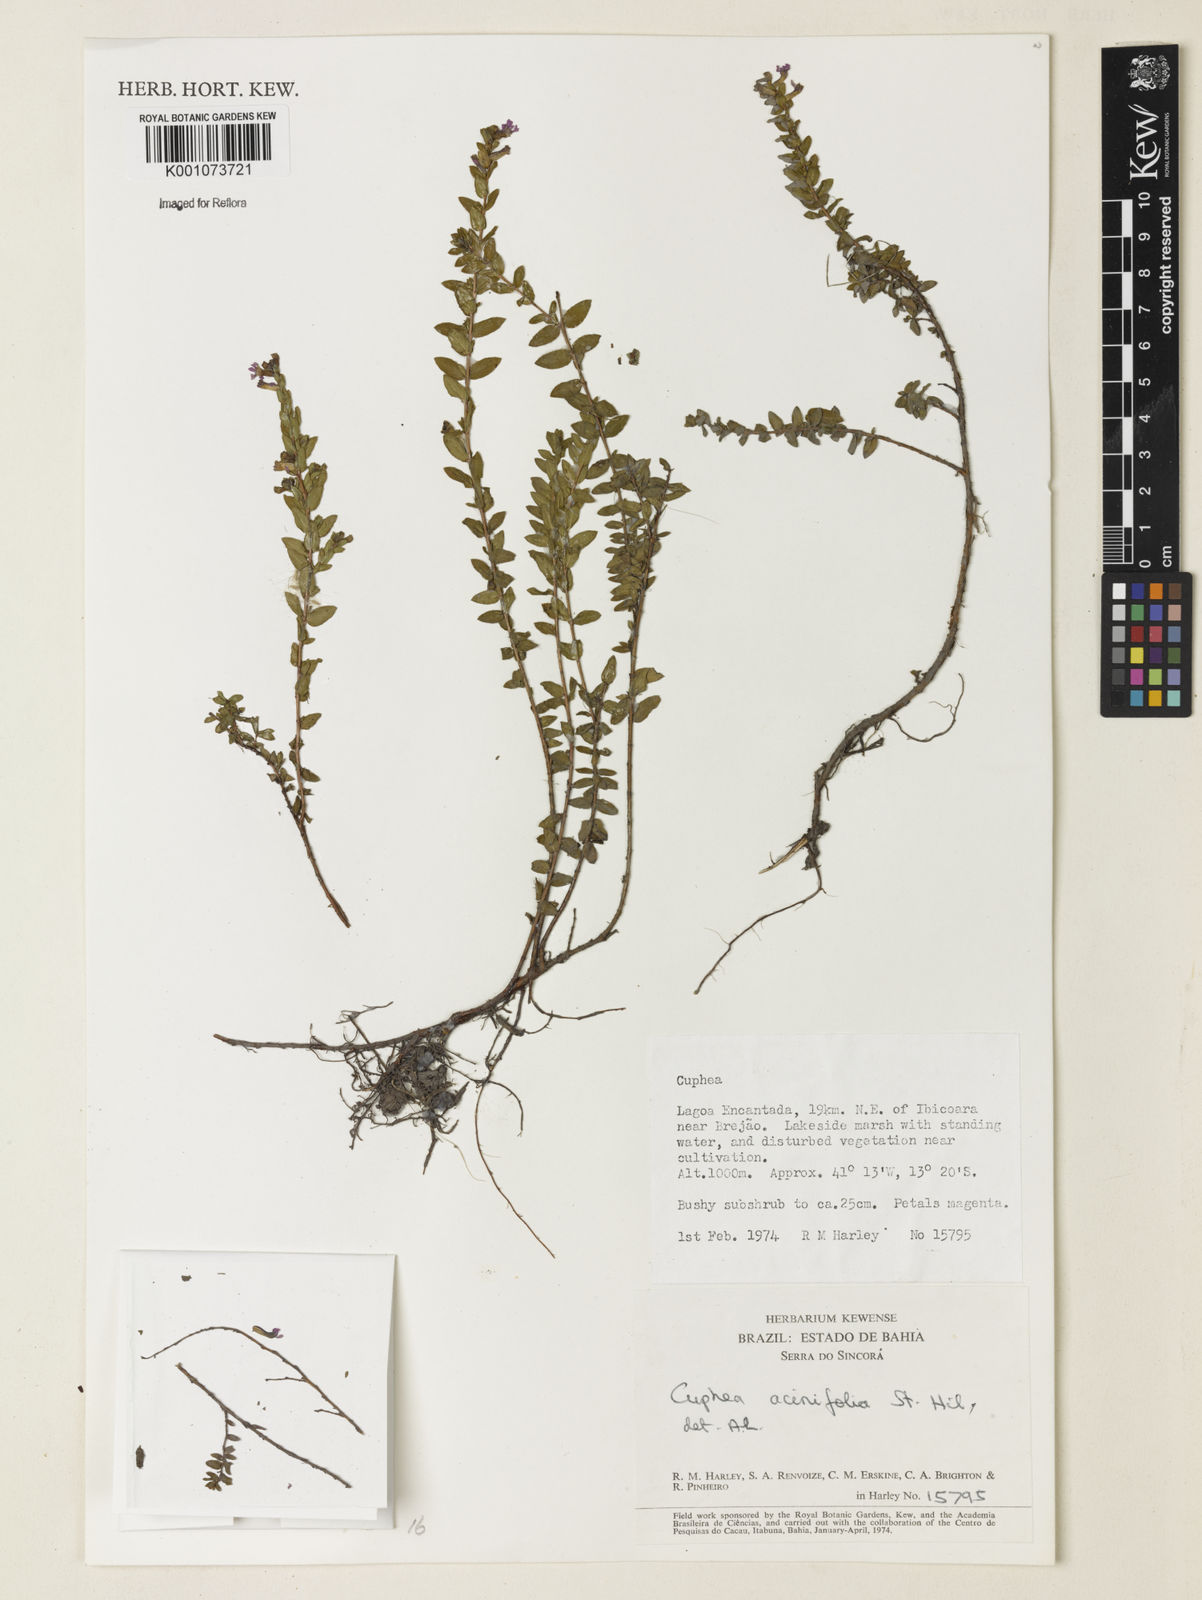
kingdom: Plantae
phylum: Tracheophyta
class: Magnoliopsida
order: Myrtales
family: Lythraceae
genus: Cuphea
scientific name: Cuphea acinifolia
